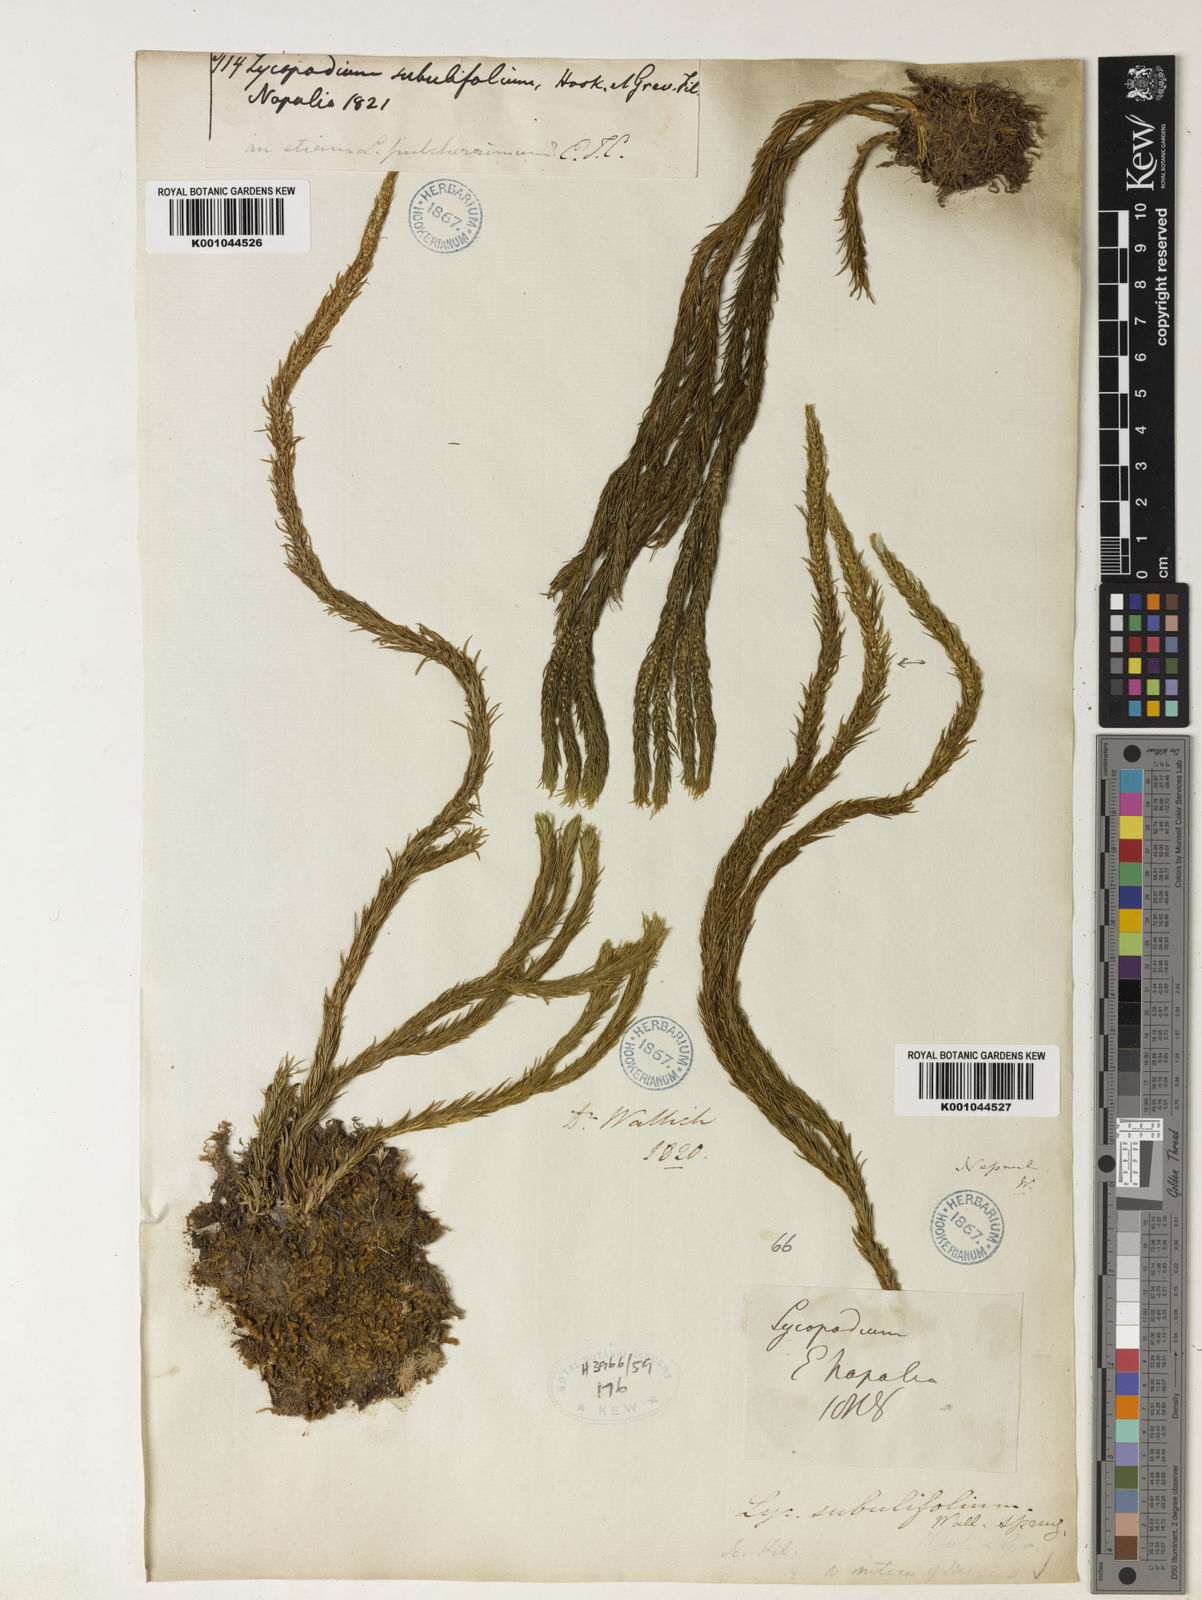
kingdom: Plantae
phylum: Tracheophyta
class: Lycopodiopsida
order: Lycopodiales
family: Lycopodiaceae
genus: Phlegmariurus
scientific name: Phlegmariurus pulcherrimus
